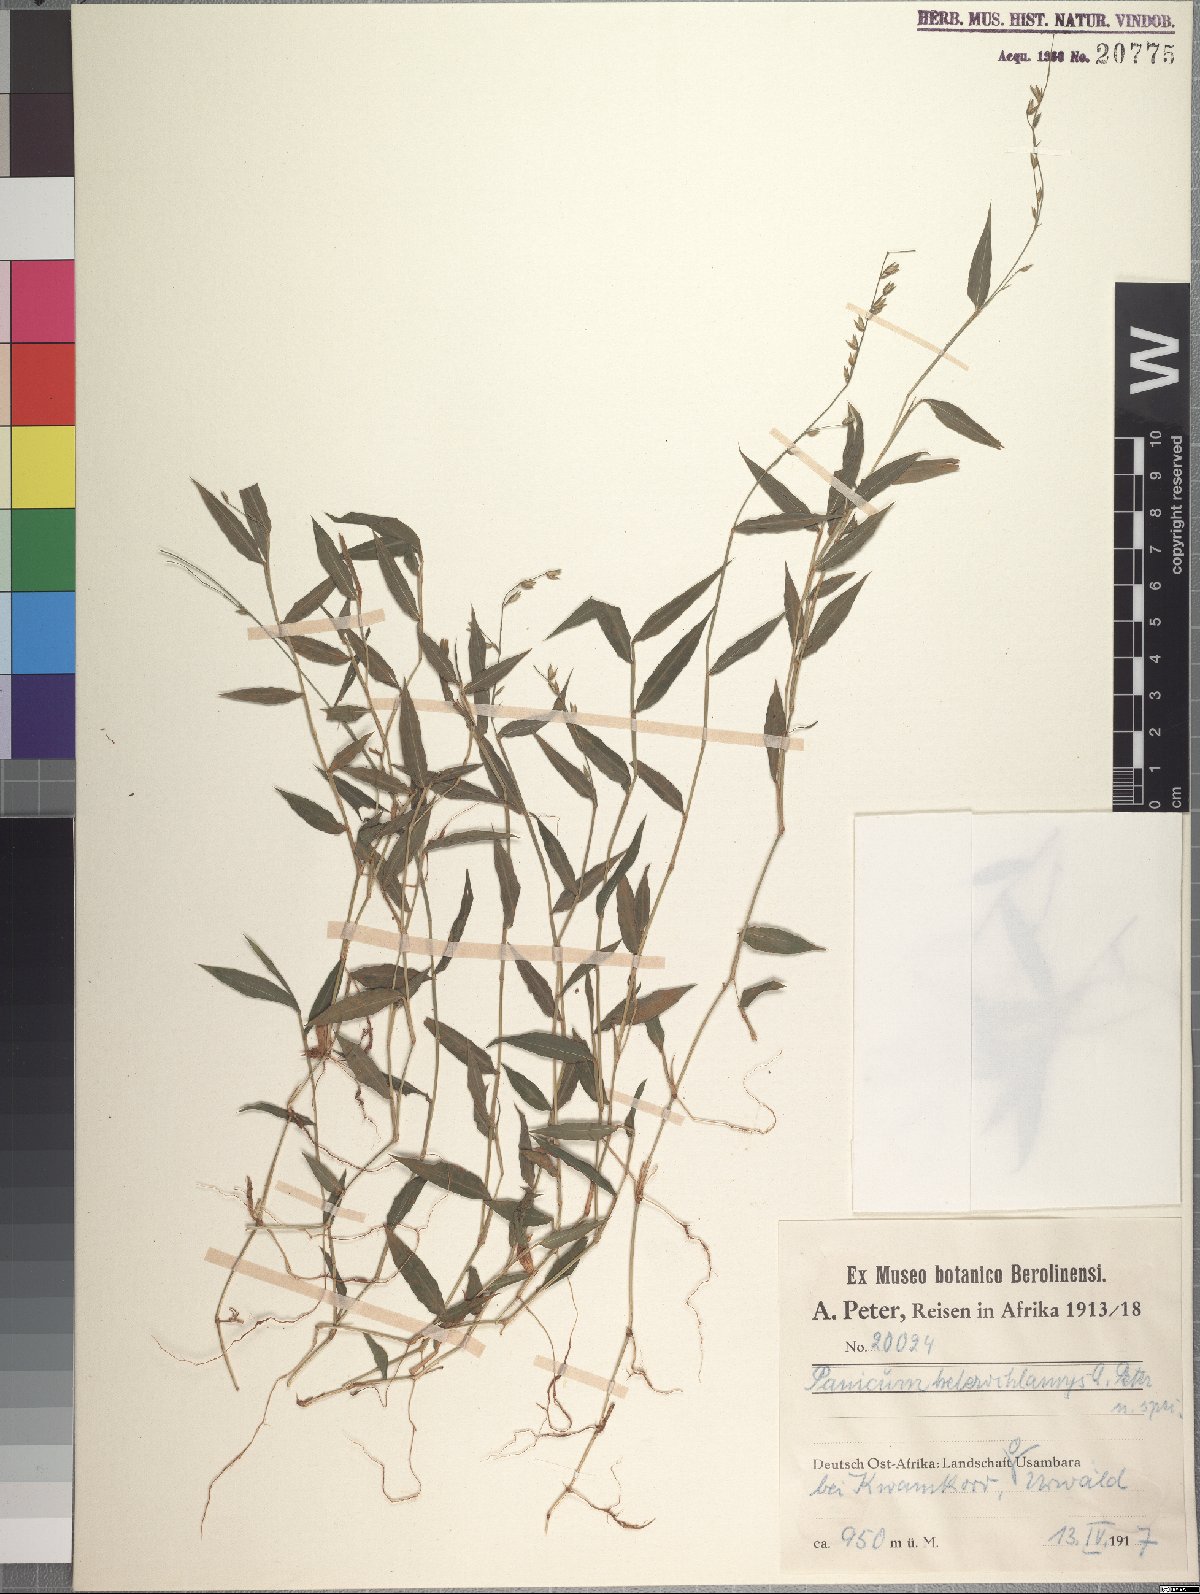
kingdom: Plantae
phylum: Tracheophyta
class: Liliopsida
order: Poales
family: Poaceae
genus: Pseudechinolaena
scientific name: Pseudechinolaena polystachya
